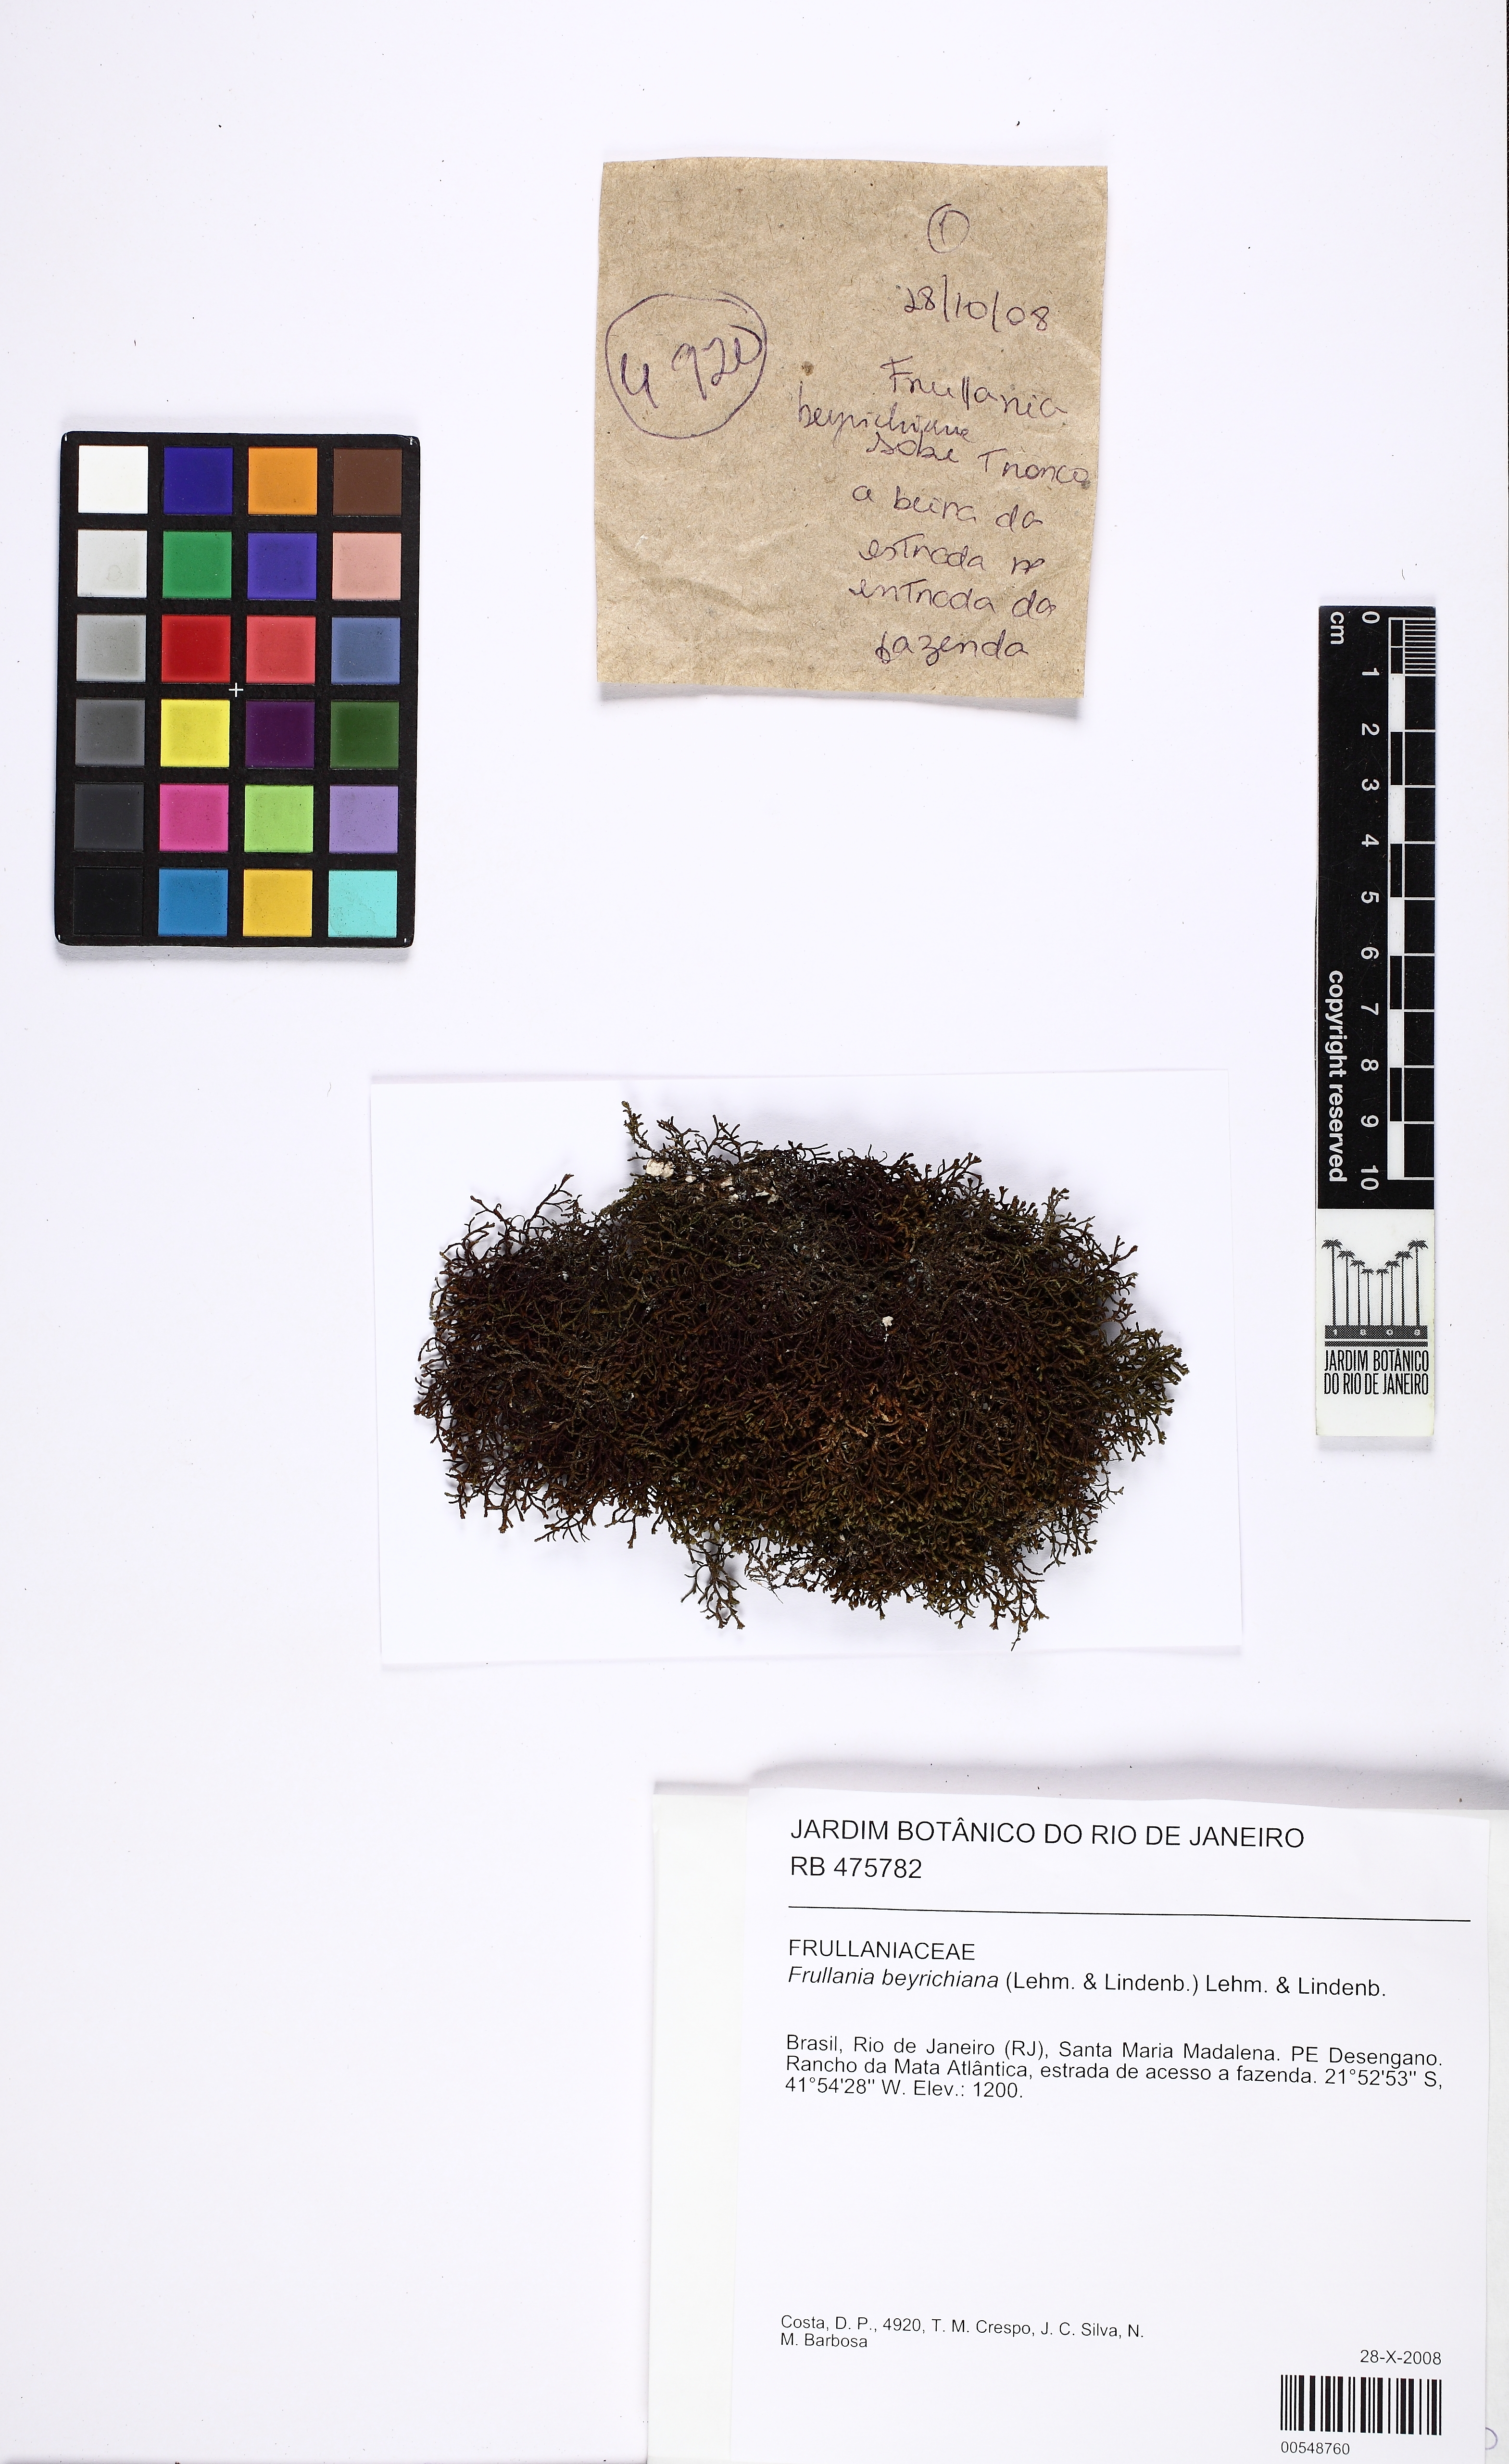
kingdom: Plantae
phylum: Marchantiophyta
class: Jungermanniopsida
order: Porellales
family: Frullaniaceae
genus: Frullania
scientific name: Frullania beyrichiana
